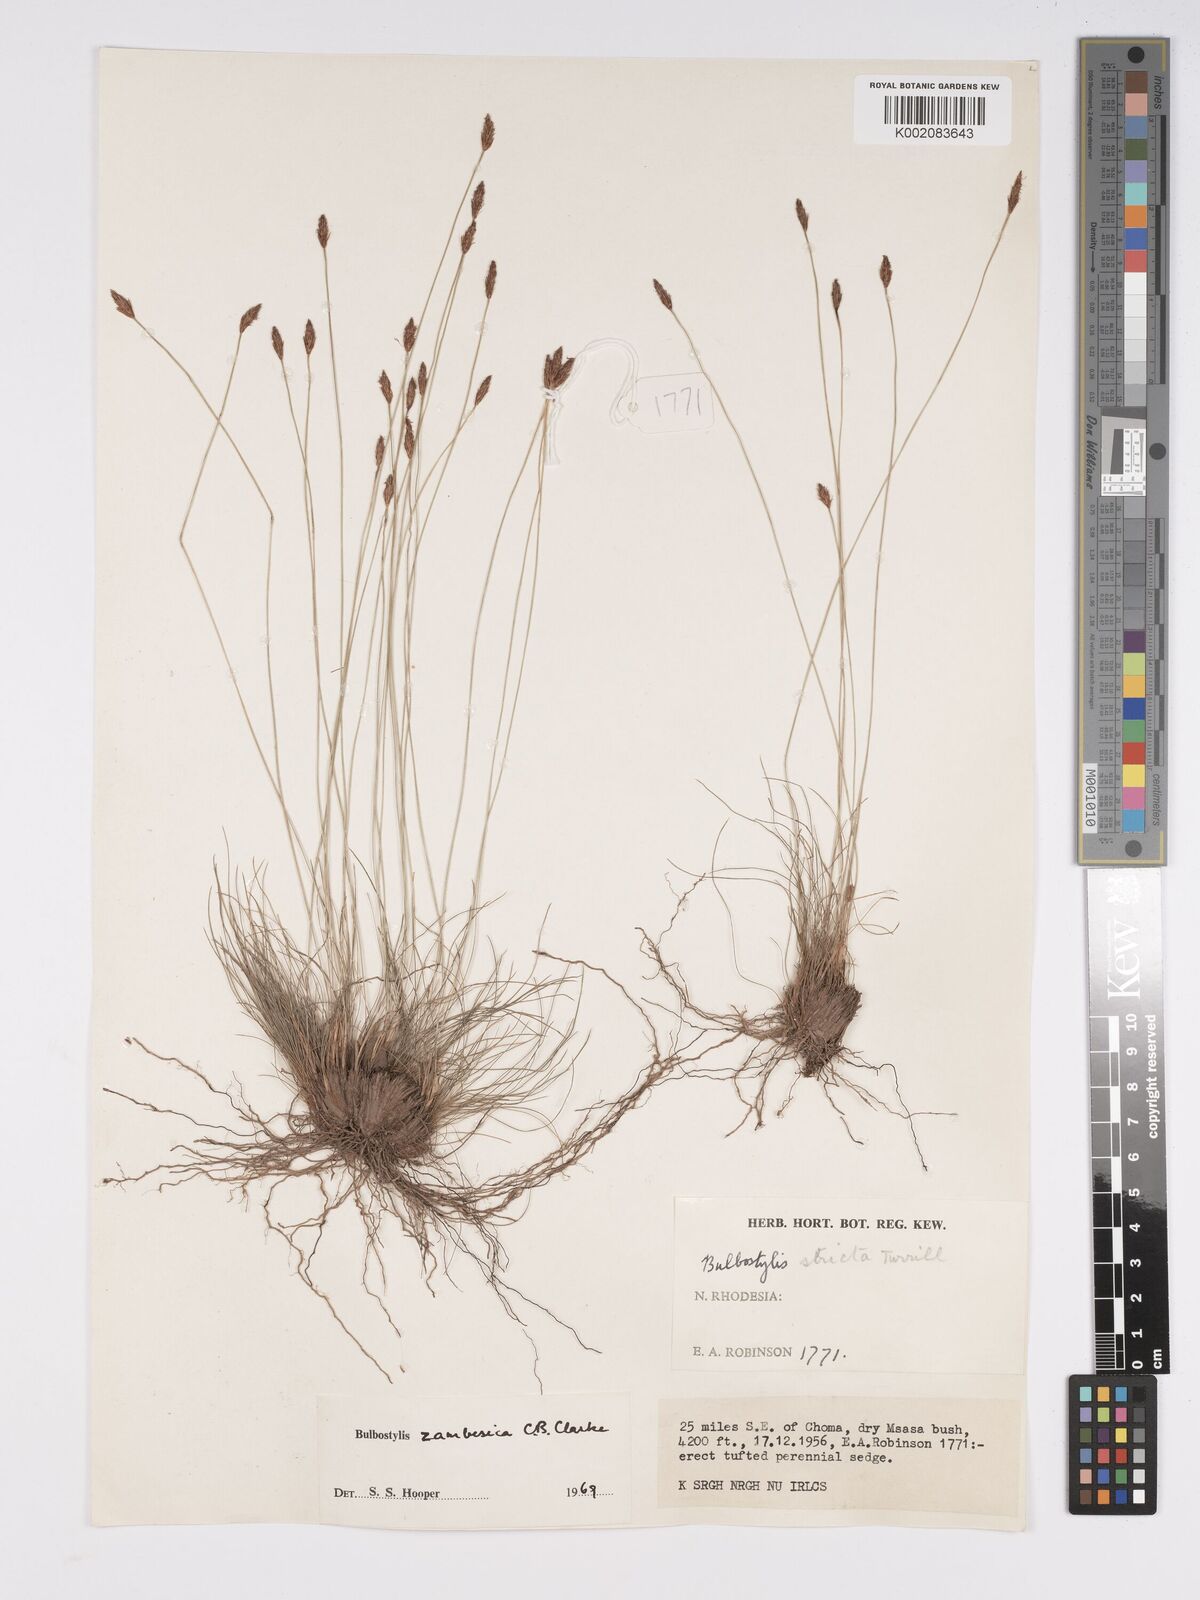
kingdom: Plantae
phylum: Tracheophyta
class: Liliopsida
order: Poales
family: Cyperaceae
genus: Bulbostylis
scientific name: Bulbostylis macra
